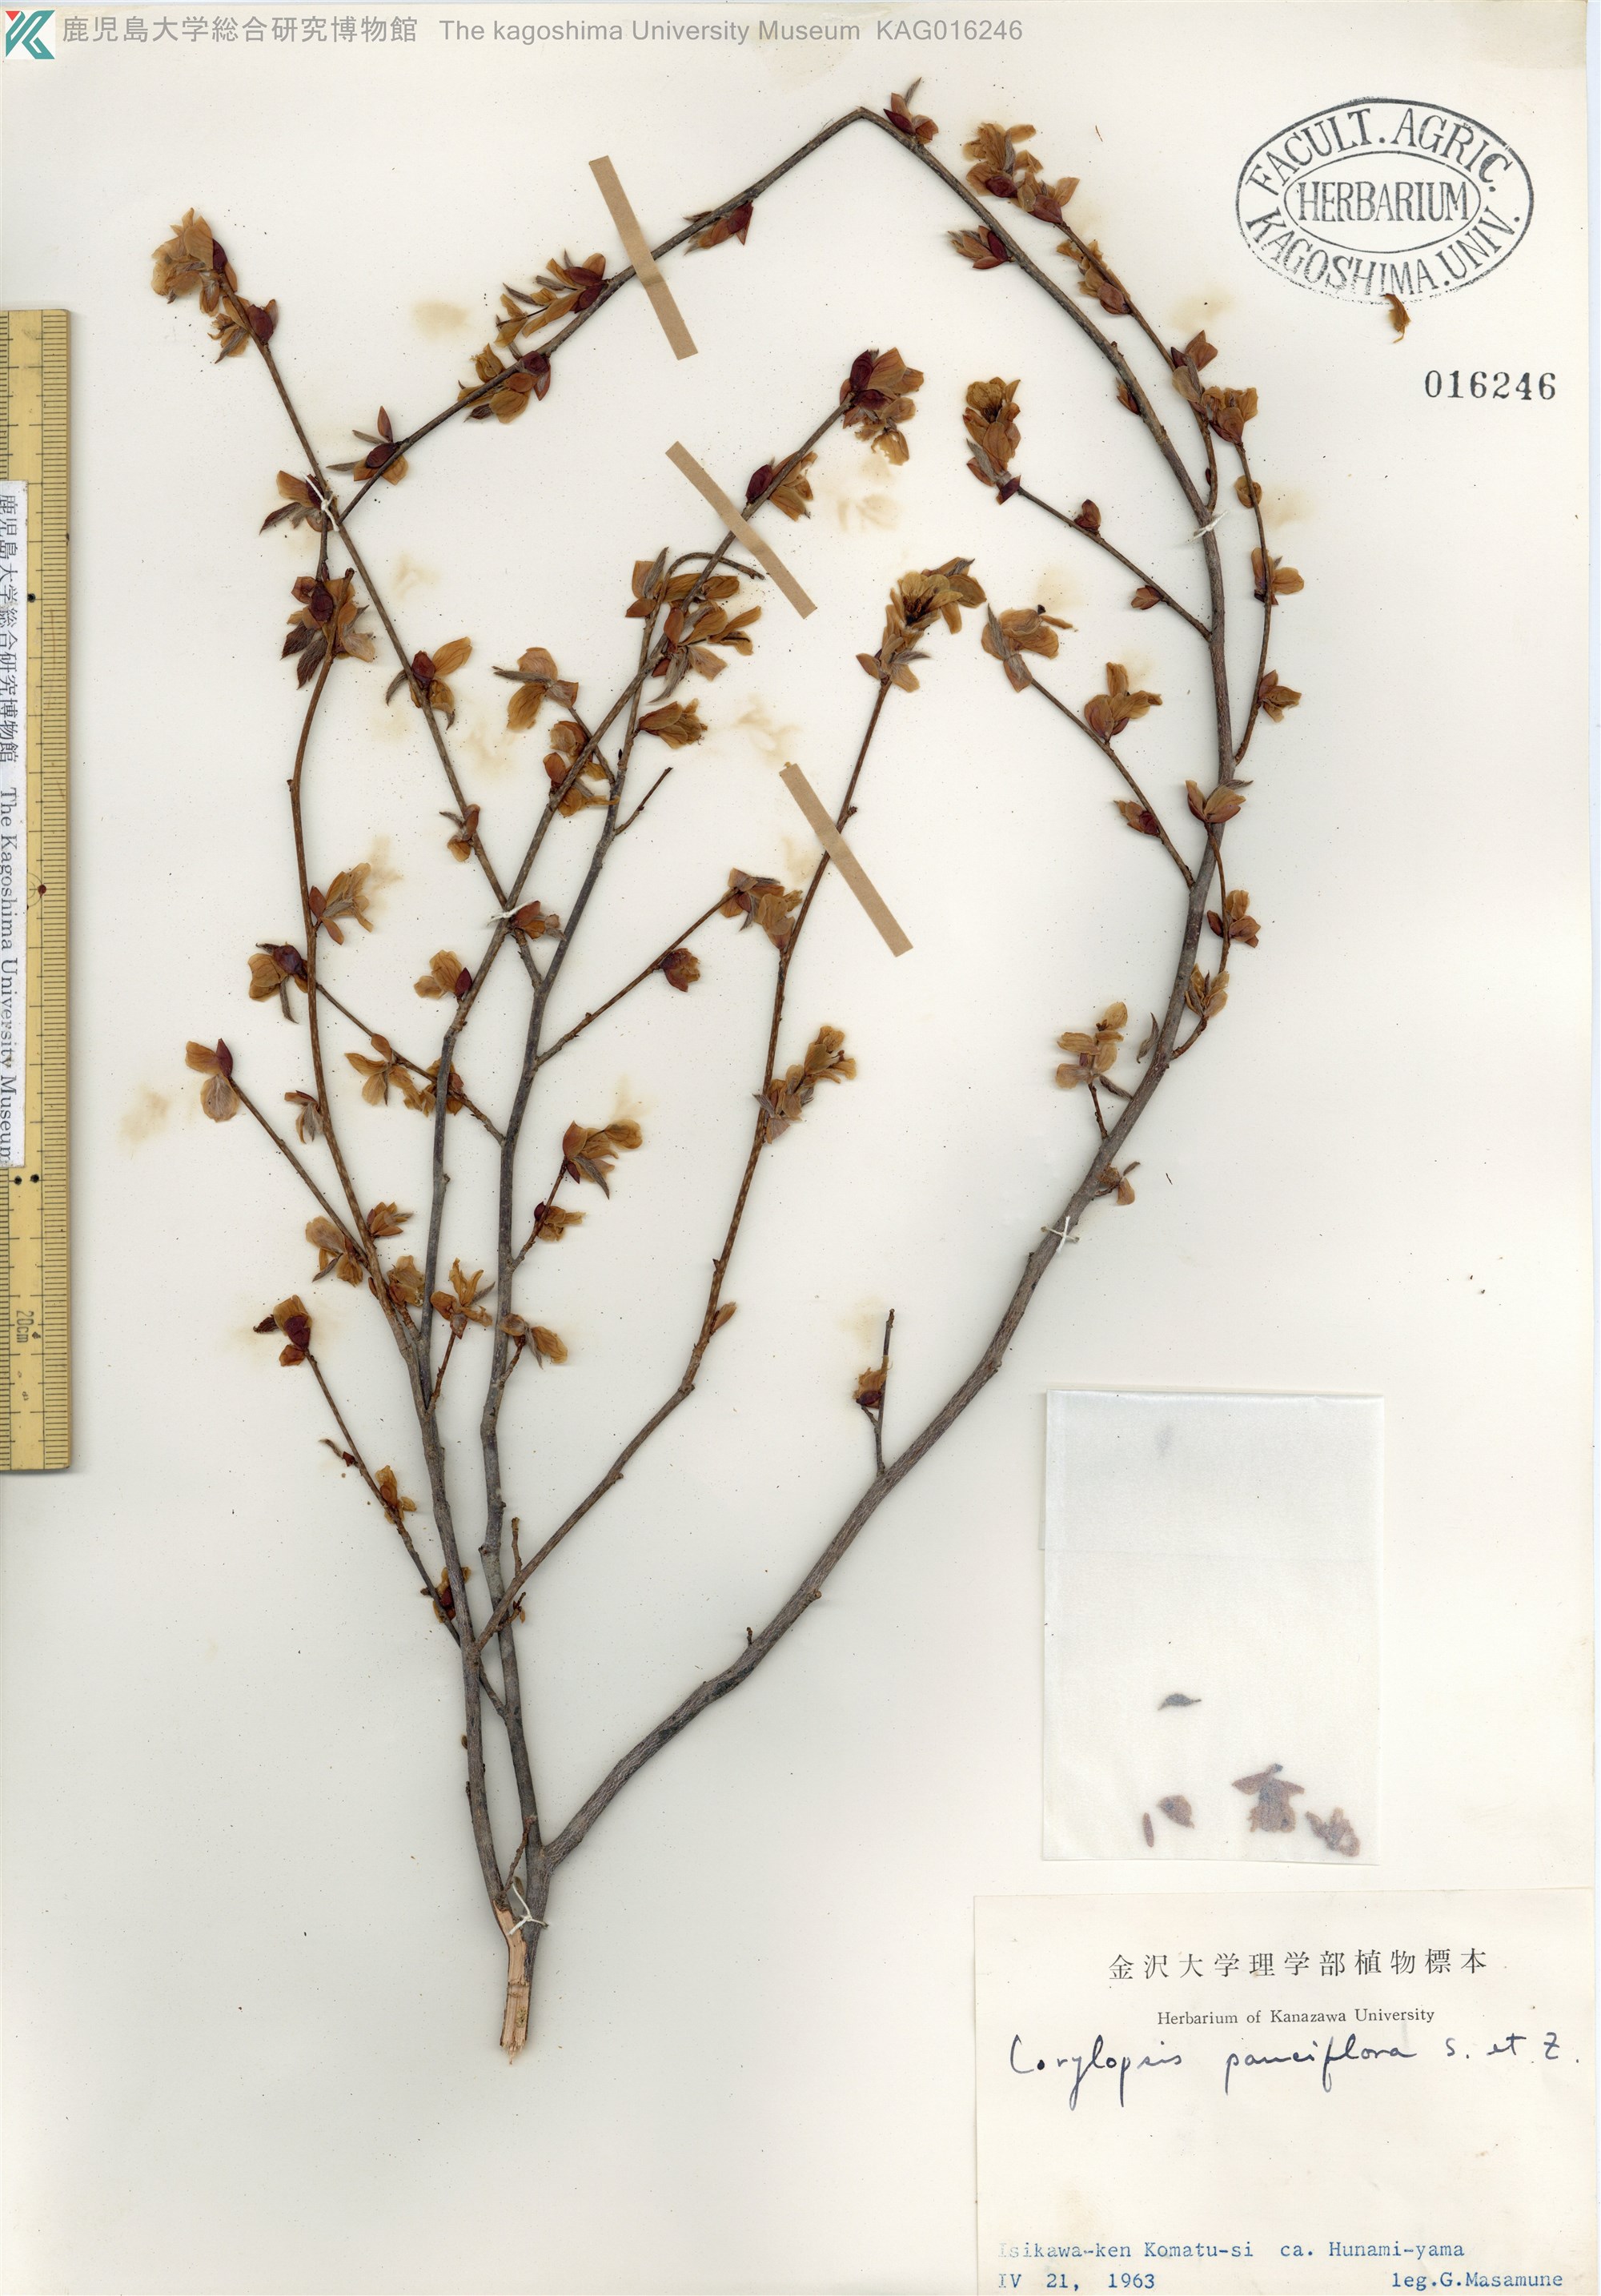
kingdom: Plantae
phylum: Tracheophyta
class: Magnoliopsida
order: Saxifragales
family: Hamamelidaceae
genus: Corylopsis
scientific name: Corylopsis pauciflora
